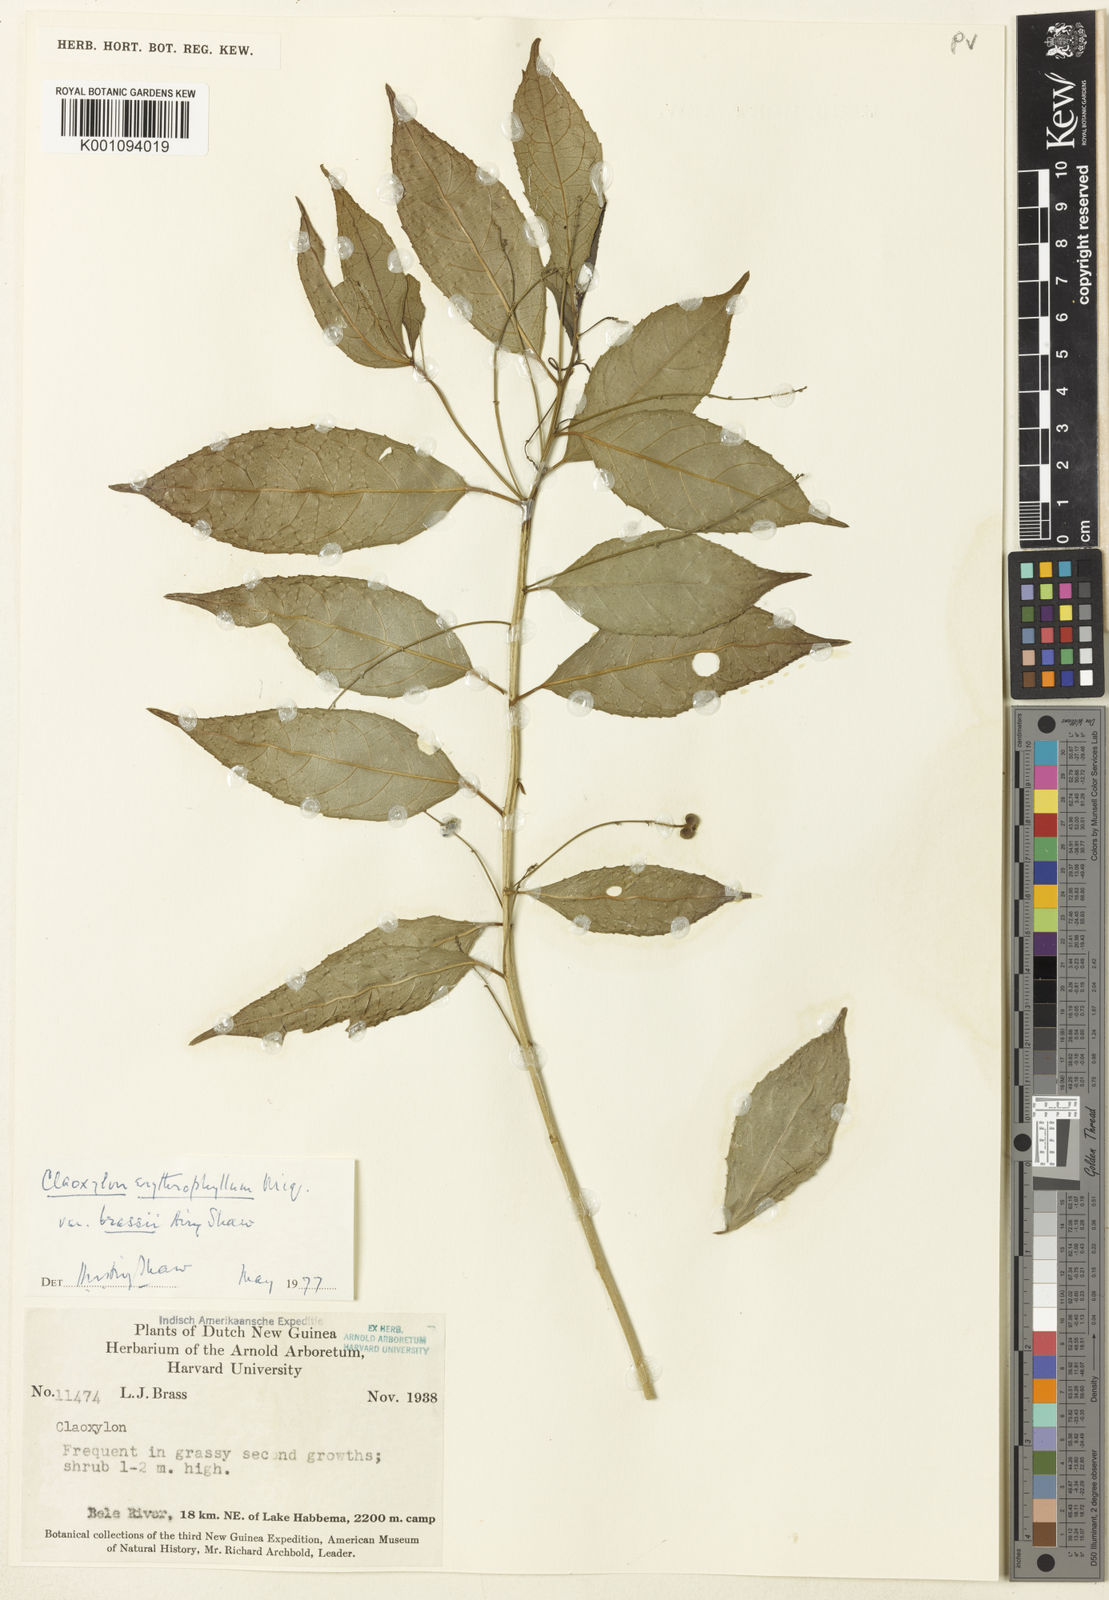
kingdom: Plantae
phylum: Tracheophyta
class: Magnoliopsida
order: Malpighiales
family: Euphorbiaceae
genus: Claoxylon
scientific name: Claoxylon erythrophyllum
